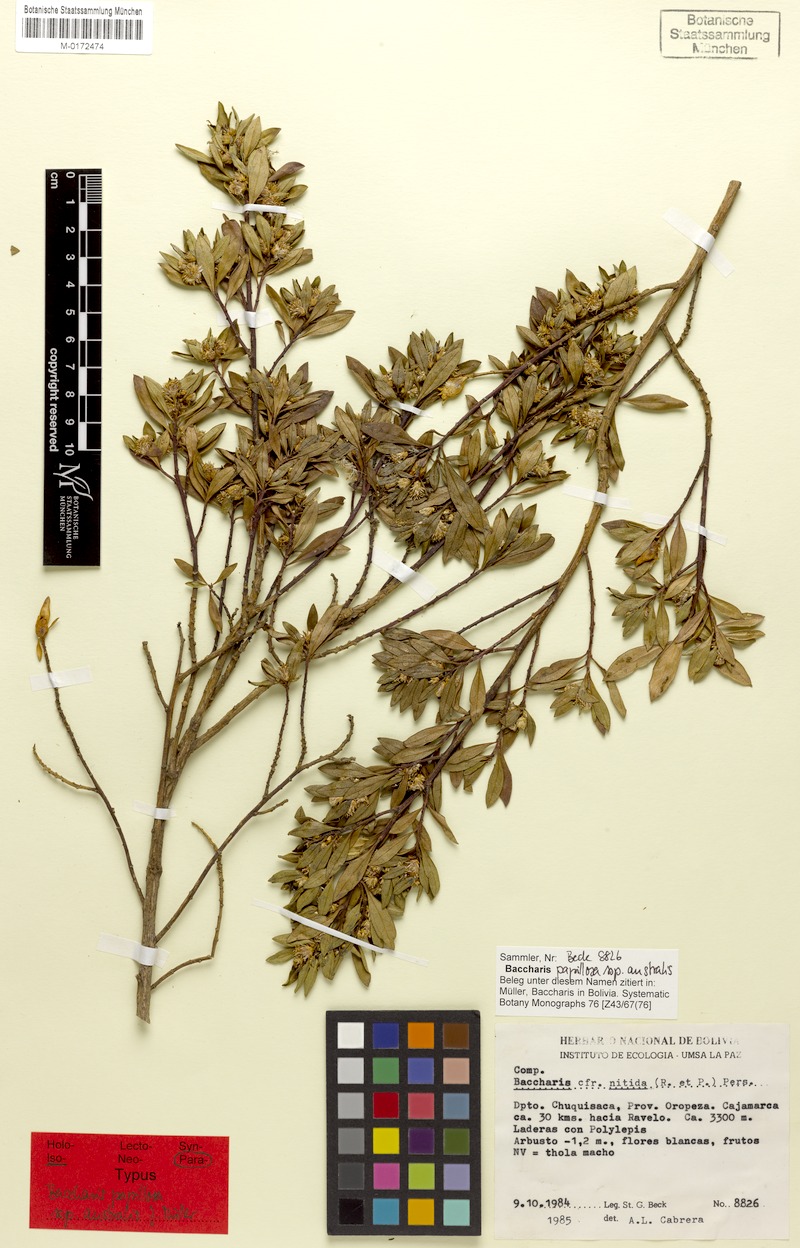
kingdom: Plantae
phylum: Tracheophyta
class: Magnoliopsida
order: Asterales
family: Asteraceae
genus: Baccharis
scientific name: Baccharis neoaustralis
